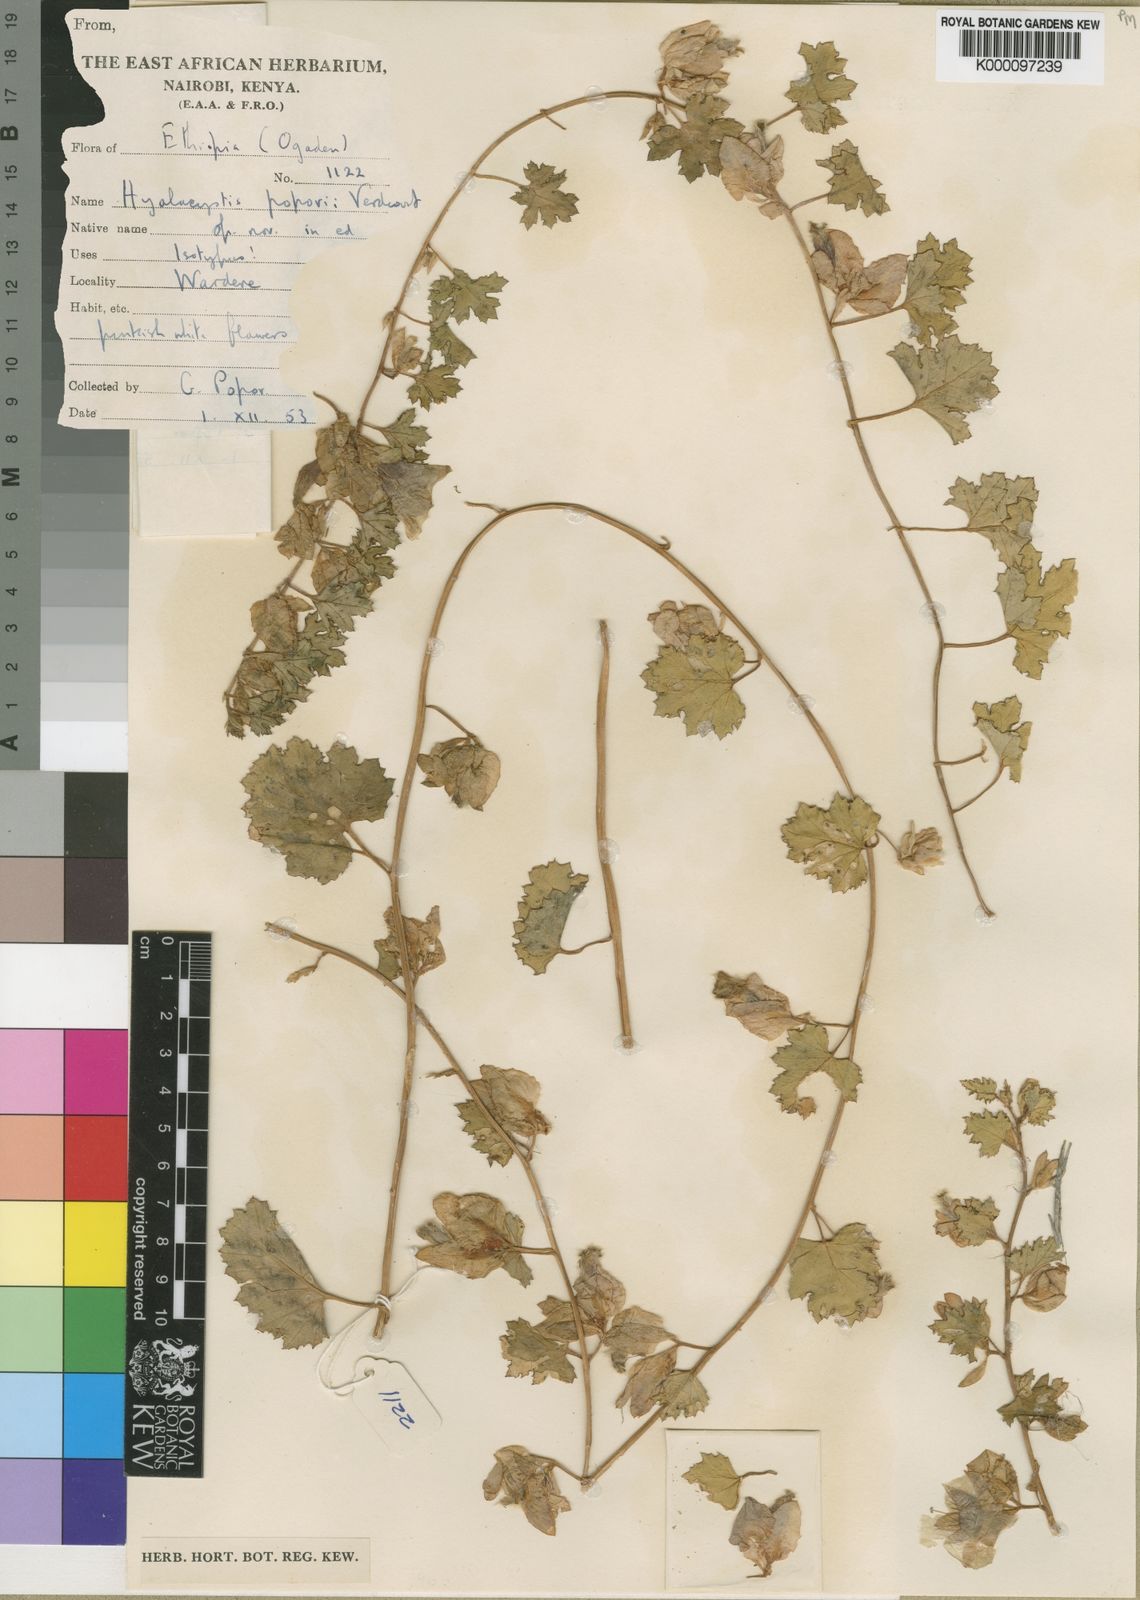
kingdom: Plantae
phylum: Tracheophyta
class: Magnoliopsida
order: Solanales
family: Convolvulaceae
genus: Hyalocystis
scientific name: Hyalocystis popovii
